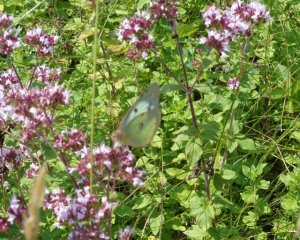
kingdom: Animalia
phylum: Arthropoda
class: Insecta
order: Lepidoptera
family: Pieridae
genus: Colias
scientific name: Colias philodice
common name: Clouded Sulphur
